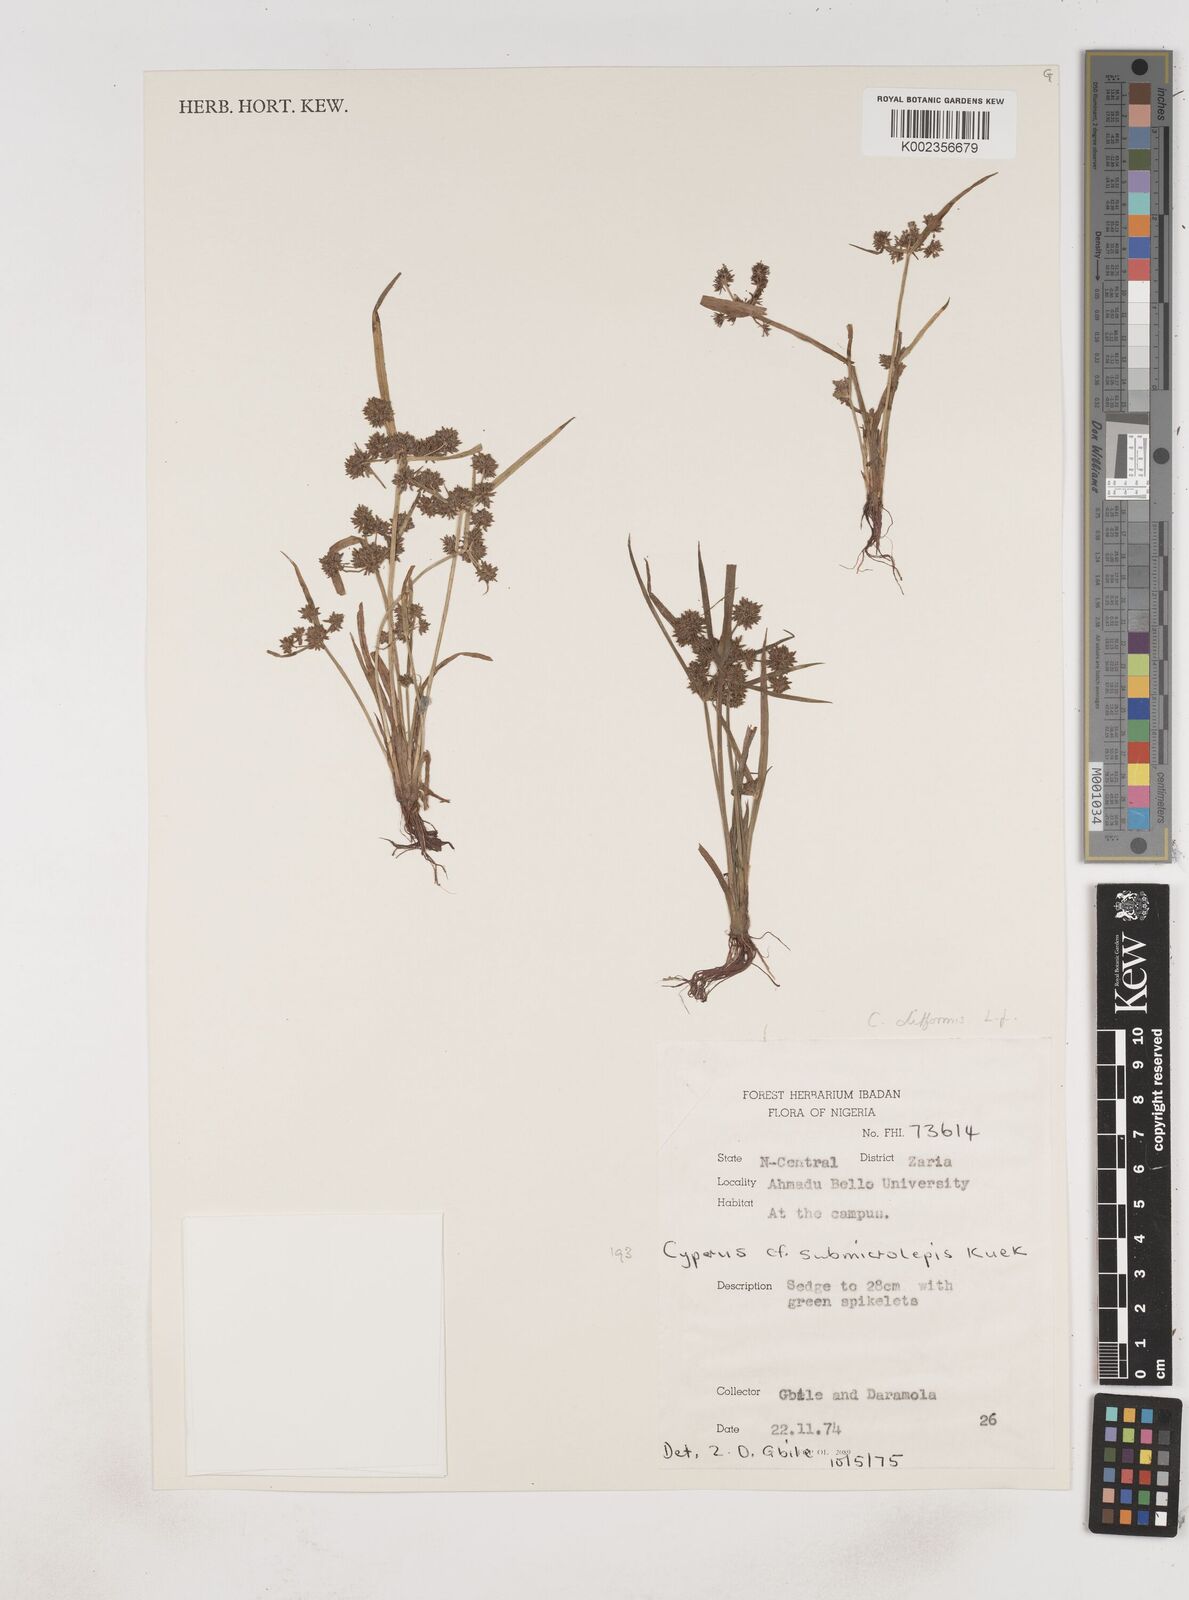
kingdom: Plantae
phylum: Tracheophyta
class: Liliopsida
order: Poales
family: Cyperaceae
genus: Cyperus
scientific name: Cyperus difformis
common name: Variable flatsedge
